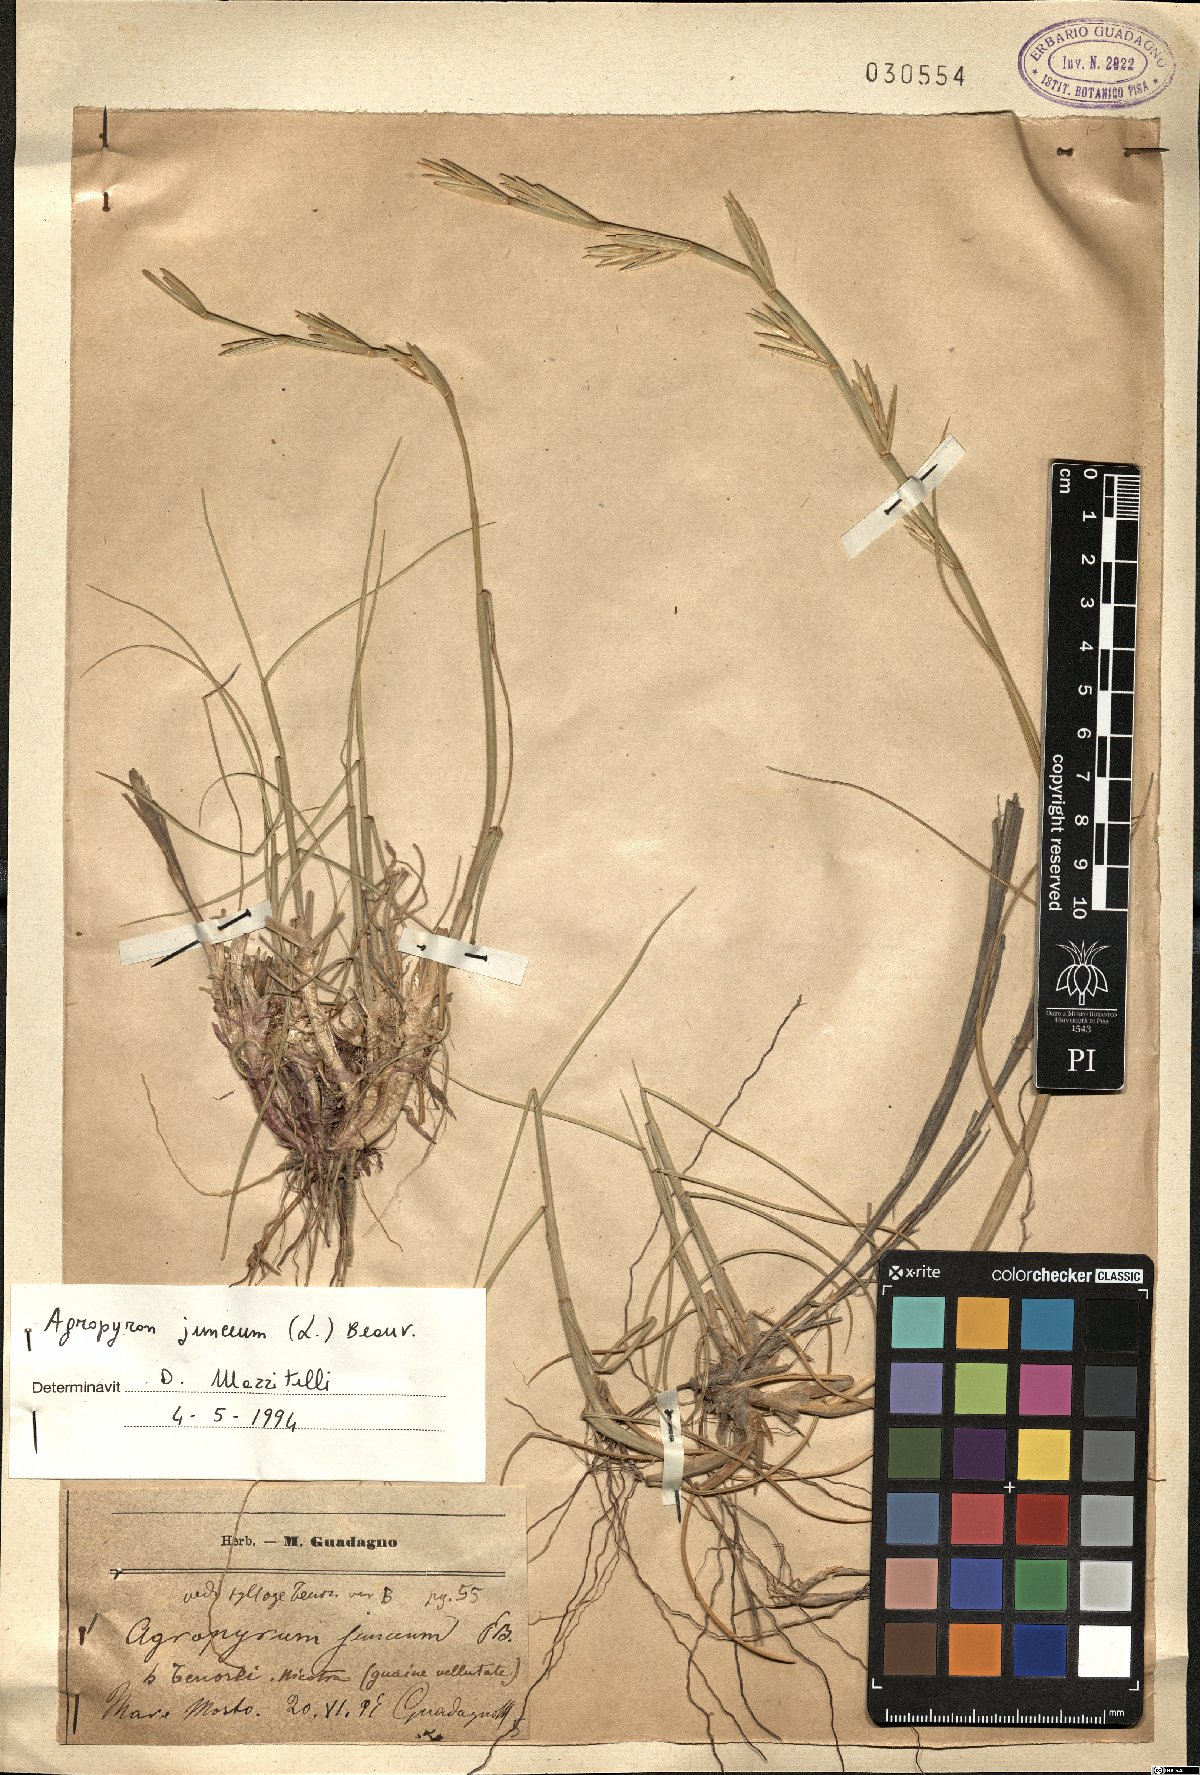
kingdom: Plantae
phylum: Tracheophyta
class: Liliopsida
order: Poales
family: Poaceae
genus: Thinopyrum
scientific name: Thinopyrum junceum
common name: Russian wheatgrass
